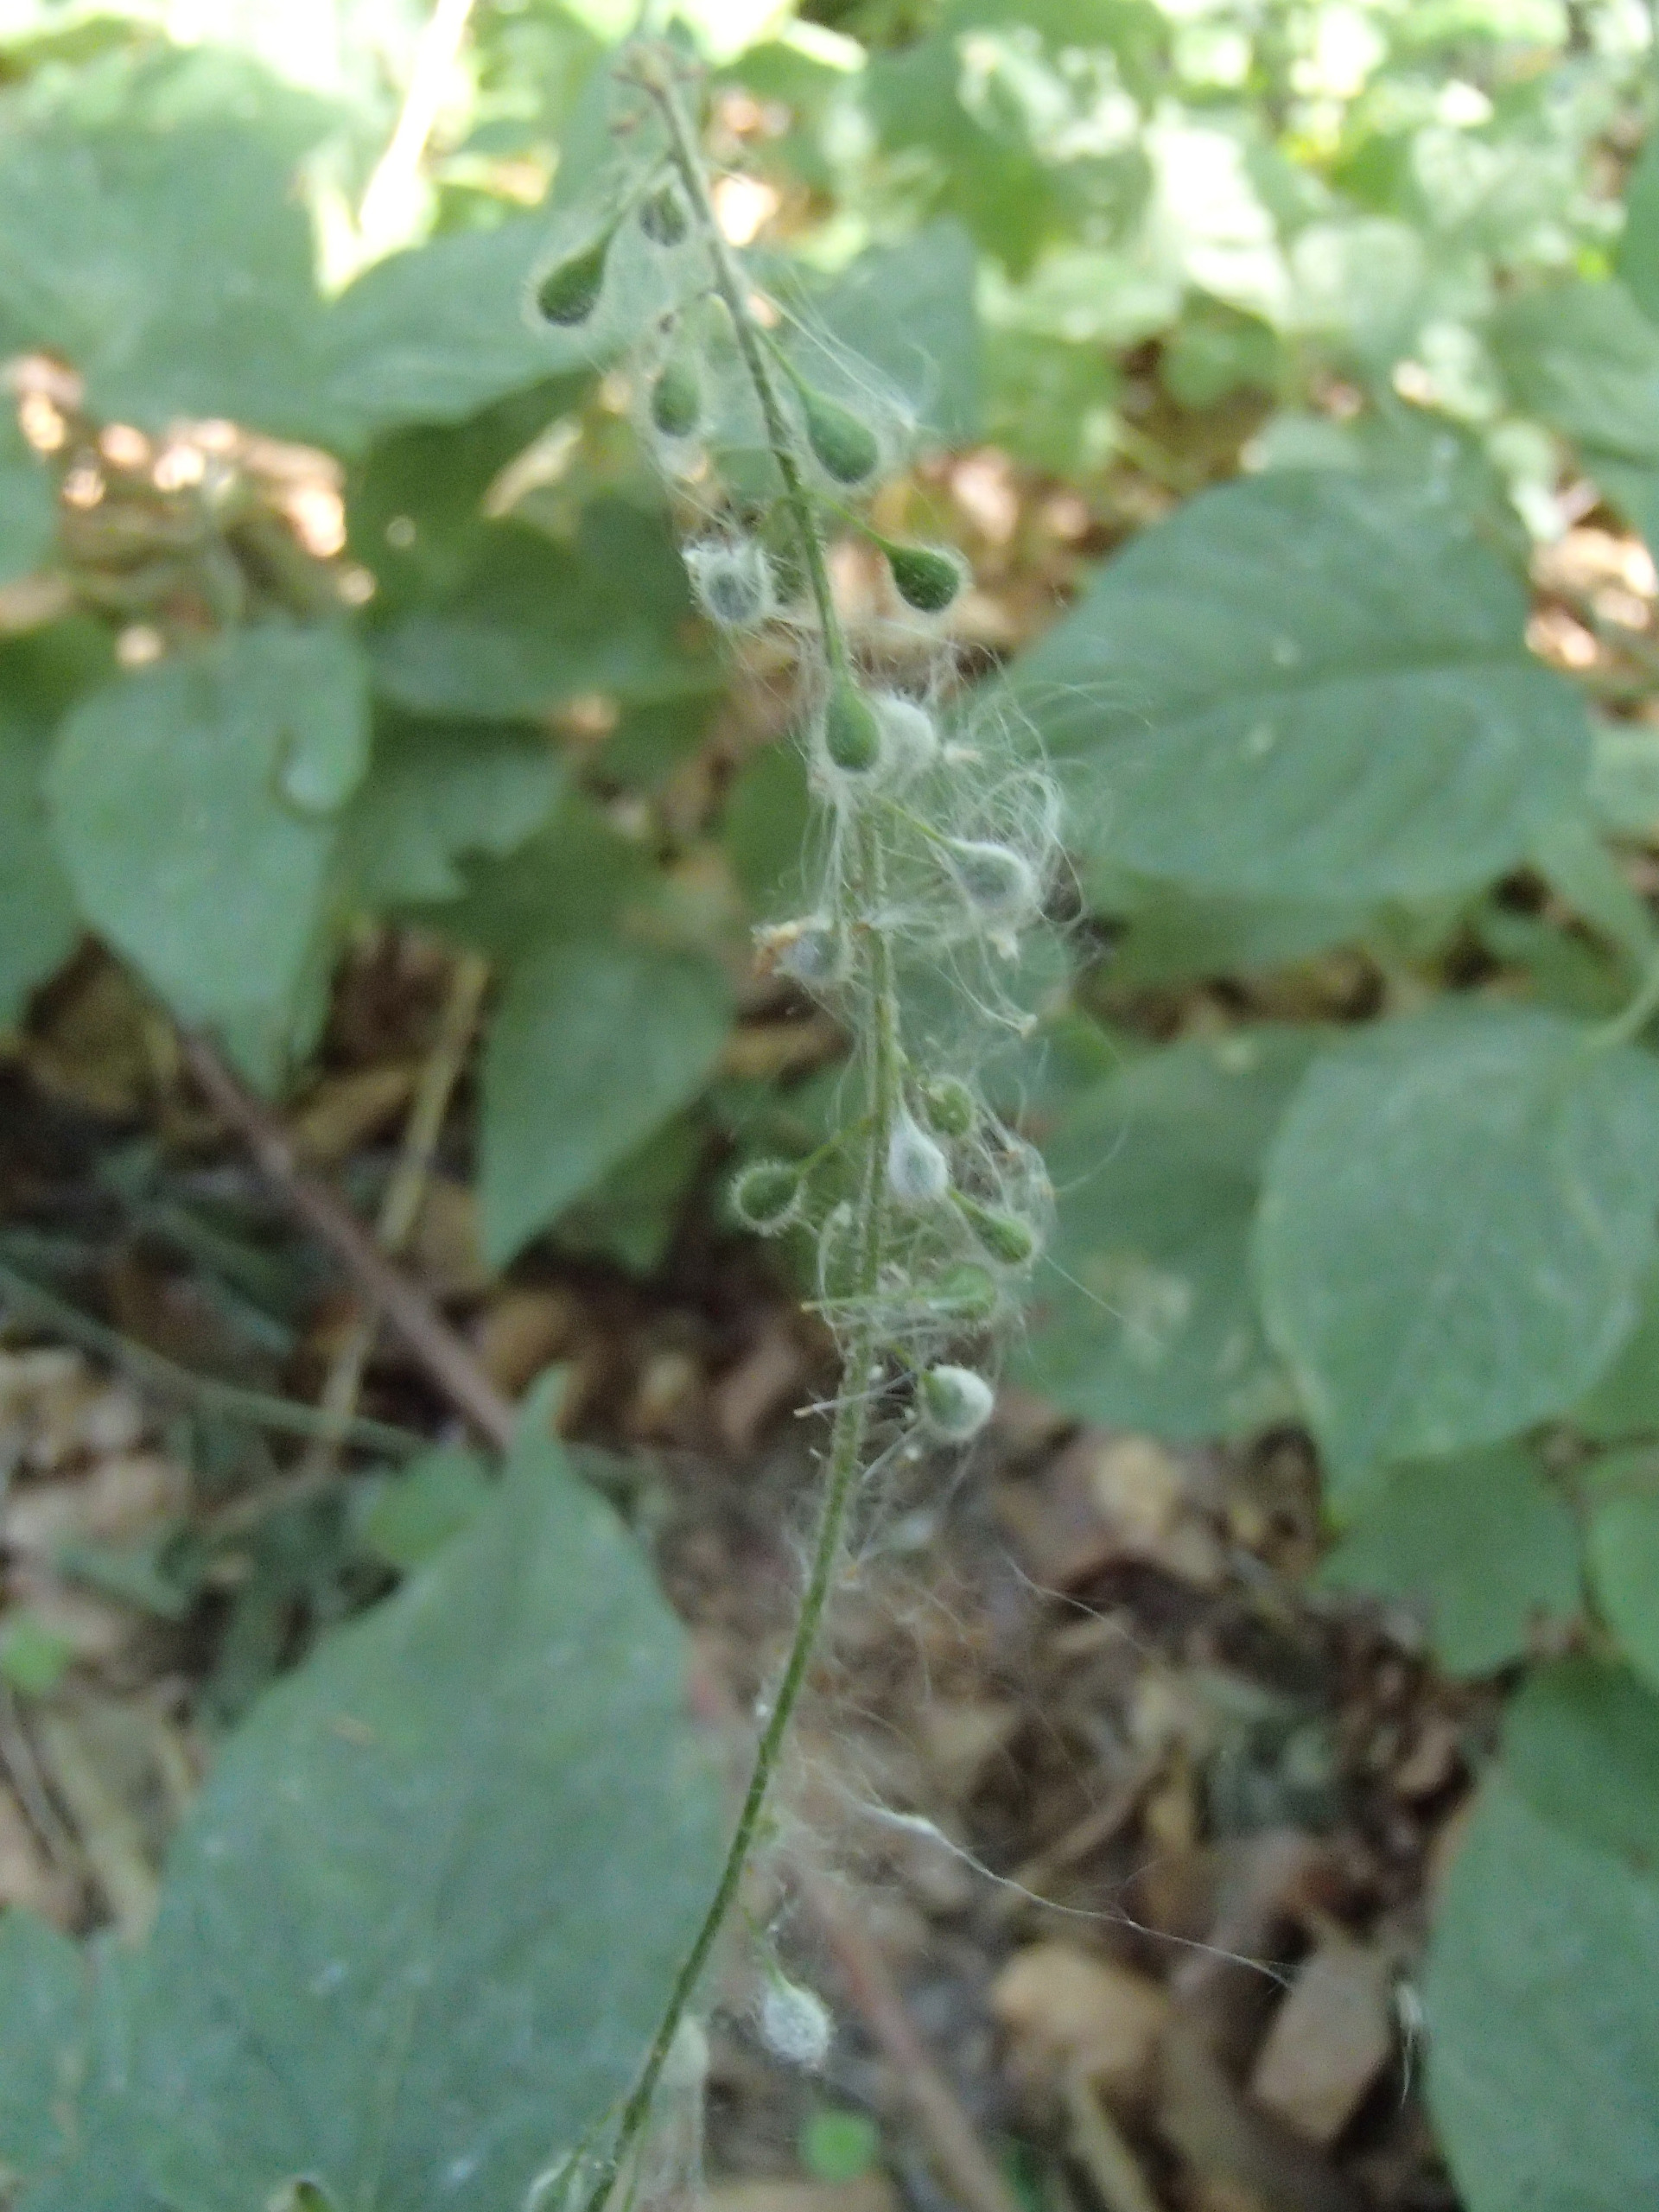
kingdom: Plantae
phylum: Tracheophyta
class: Magnoliopsida
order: Myrtales
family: Onagraceae
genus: Circaea
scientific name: Circaea lutetiana
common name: Dunet steffensurt
